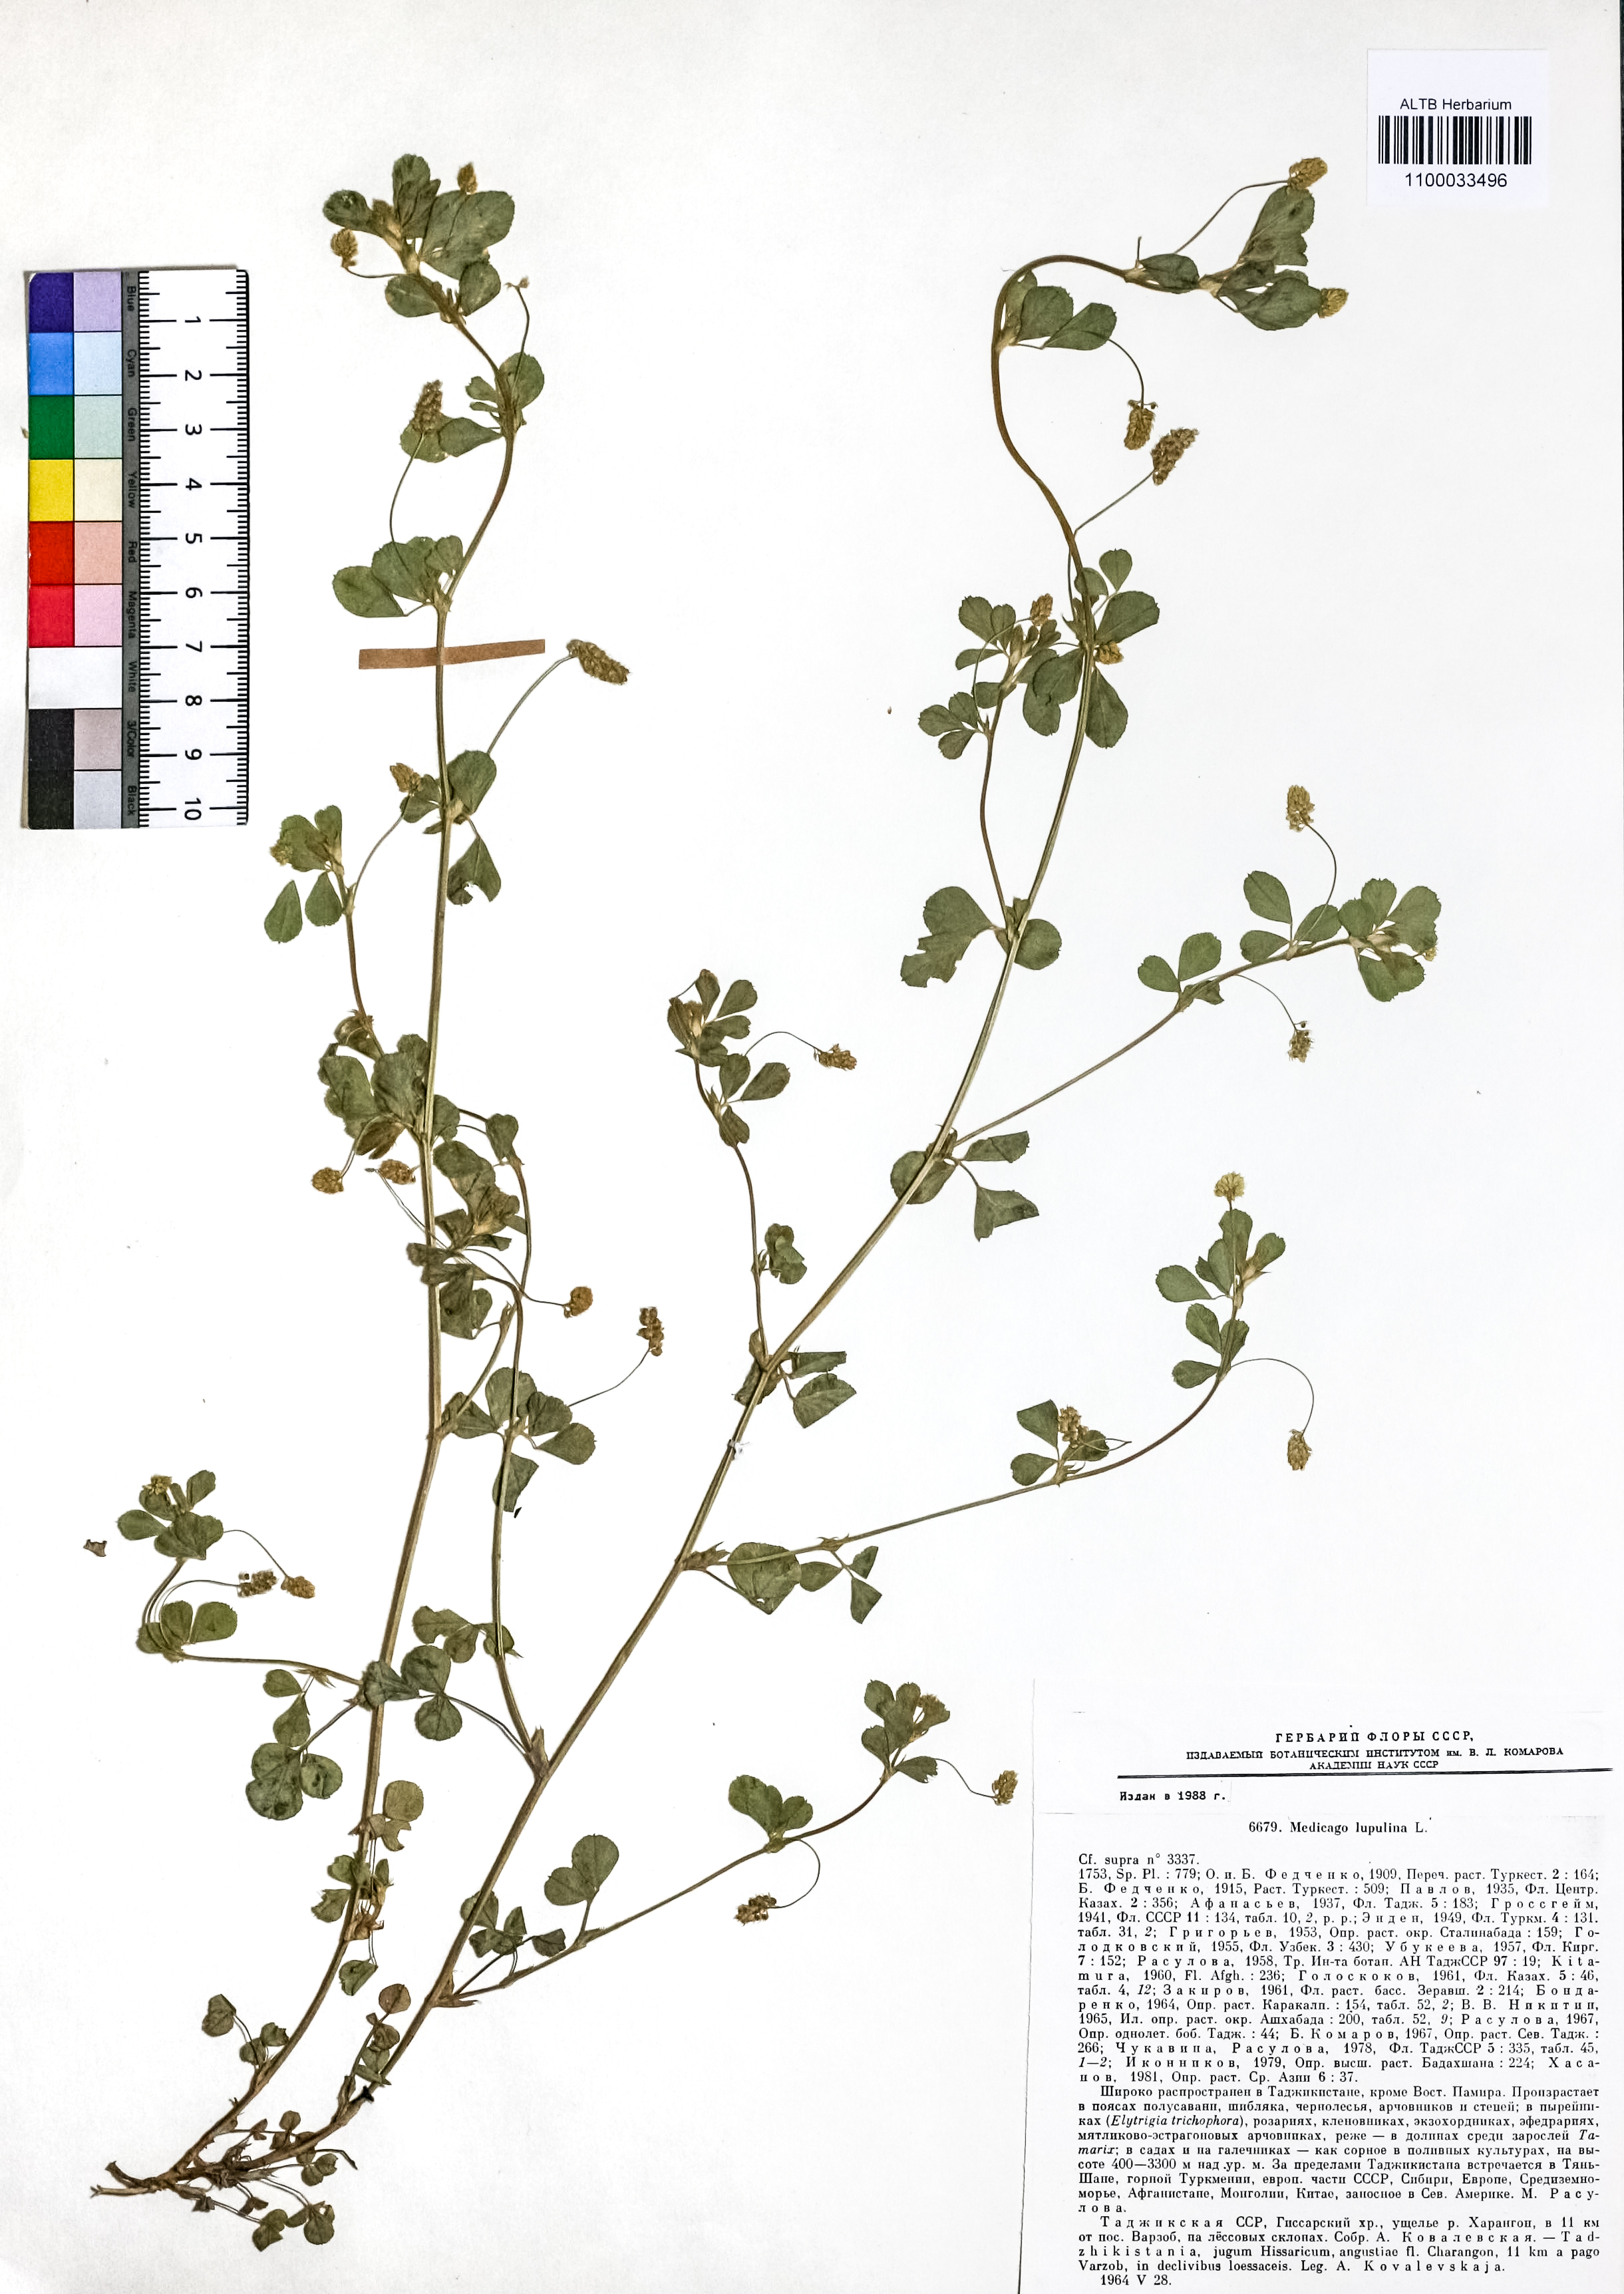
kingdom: Plantae
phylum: Tracheophyta
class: Magnoliopsida
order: Fabales
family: Fabaceae
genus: Medicago
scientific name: Medicago lupulina
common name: Black medick
